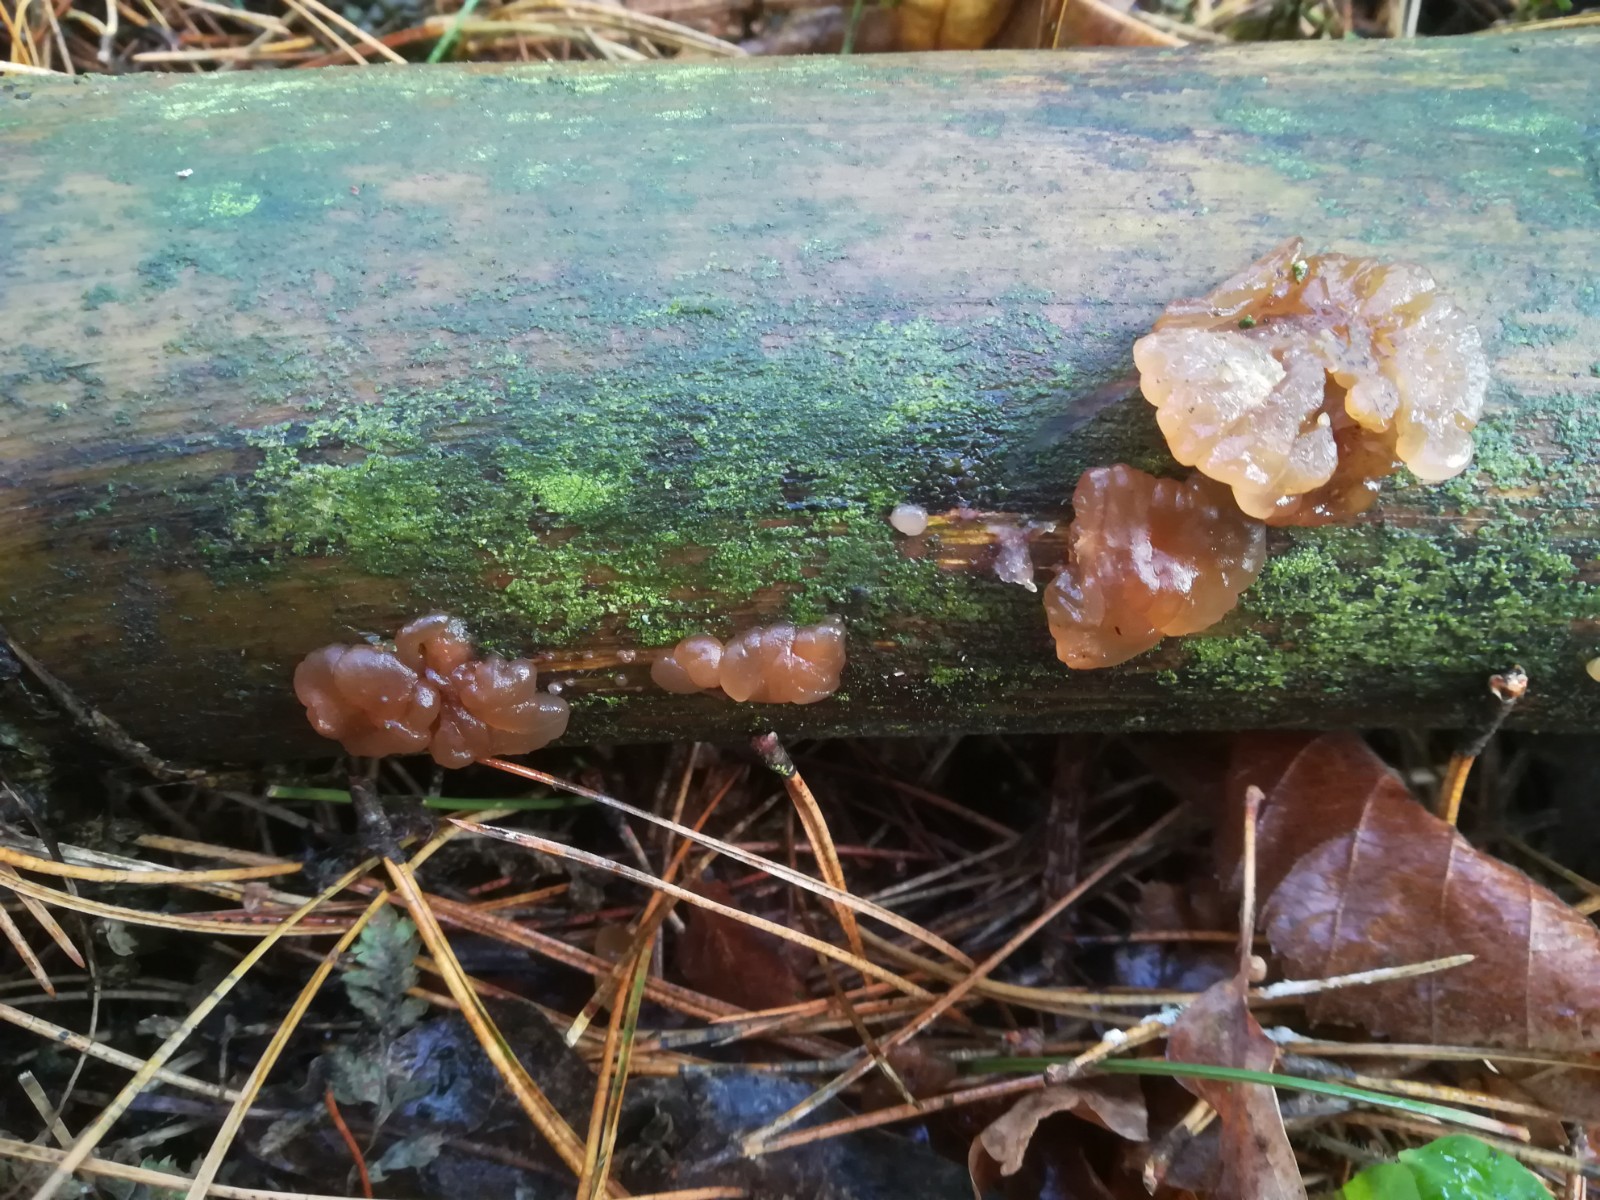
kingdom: Fungi
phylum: Basidiomycota
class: Agaricomycetes
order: Auriculariales
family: Auriculariaceae
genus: Exidia
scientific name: Exidia saccharina
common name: kandis-bævretop
